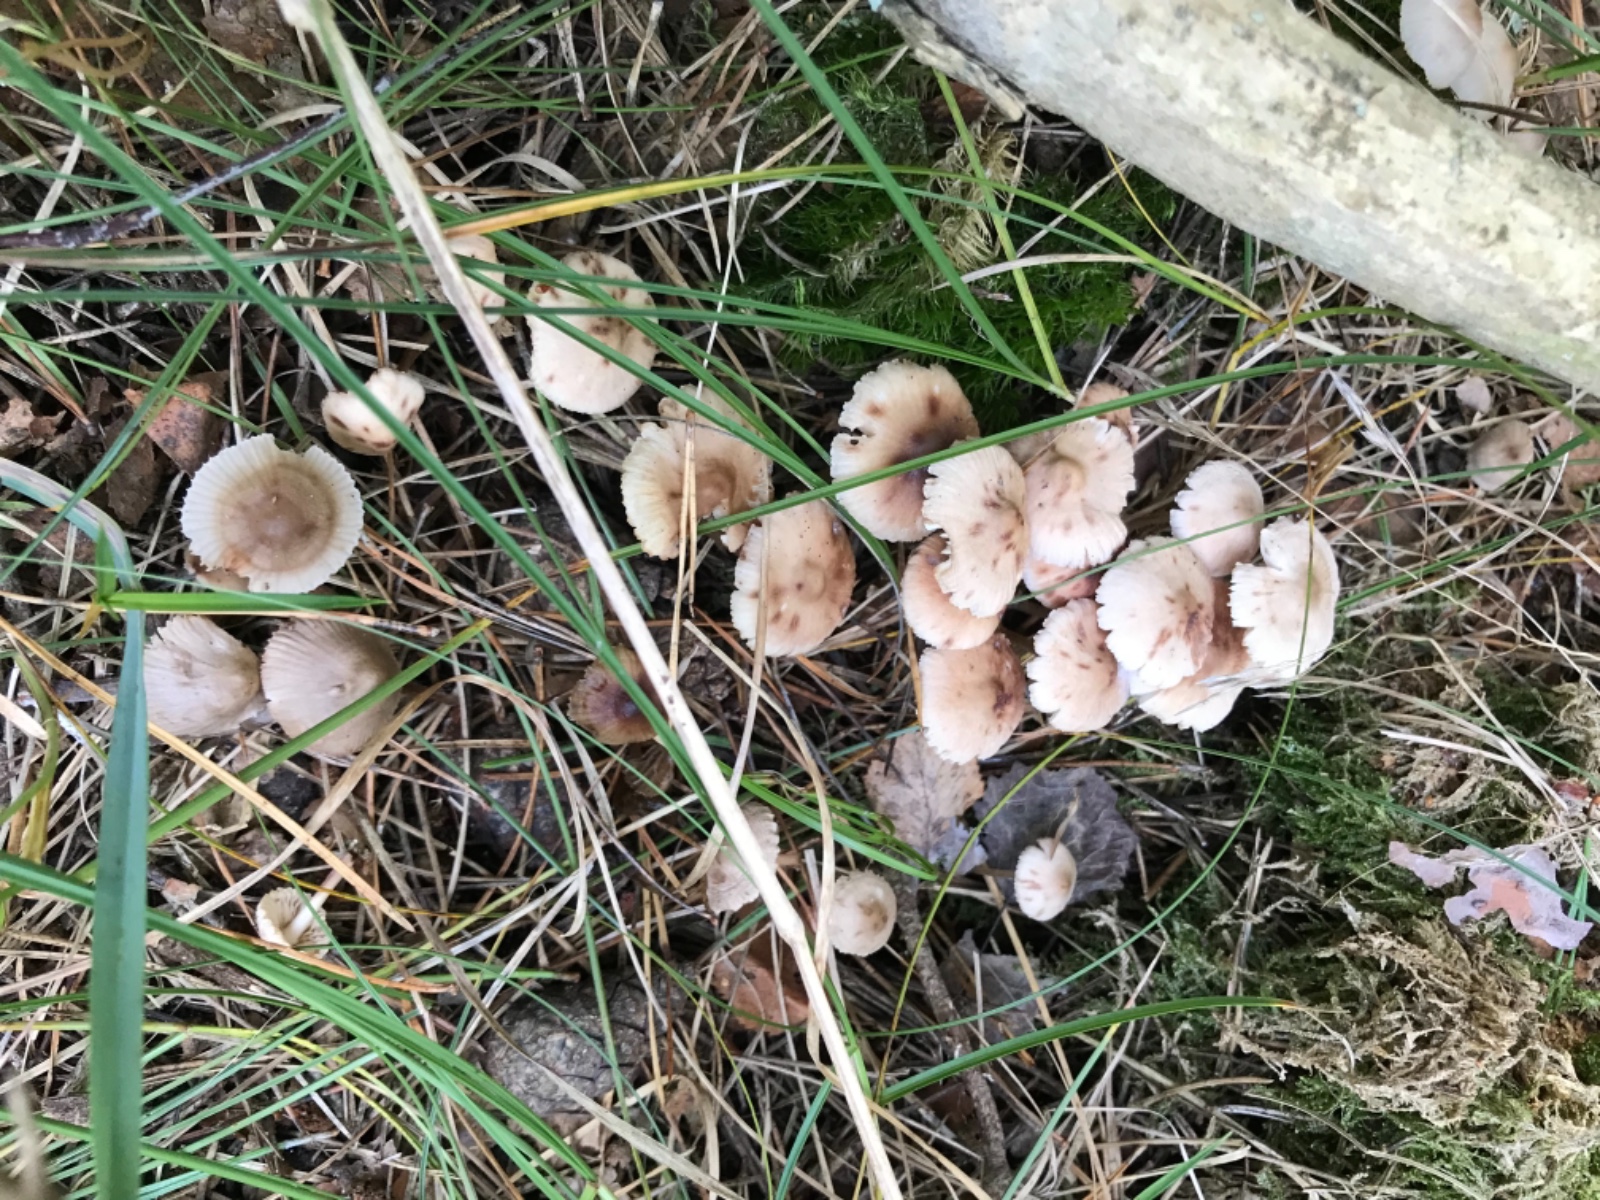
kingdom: Fungi
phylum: Basidiomycota
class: Agaricomycetes
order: Agaricales
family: Mycenaceae
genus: Mycena
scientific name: Mycena zephirus
